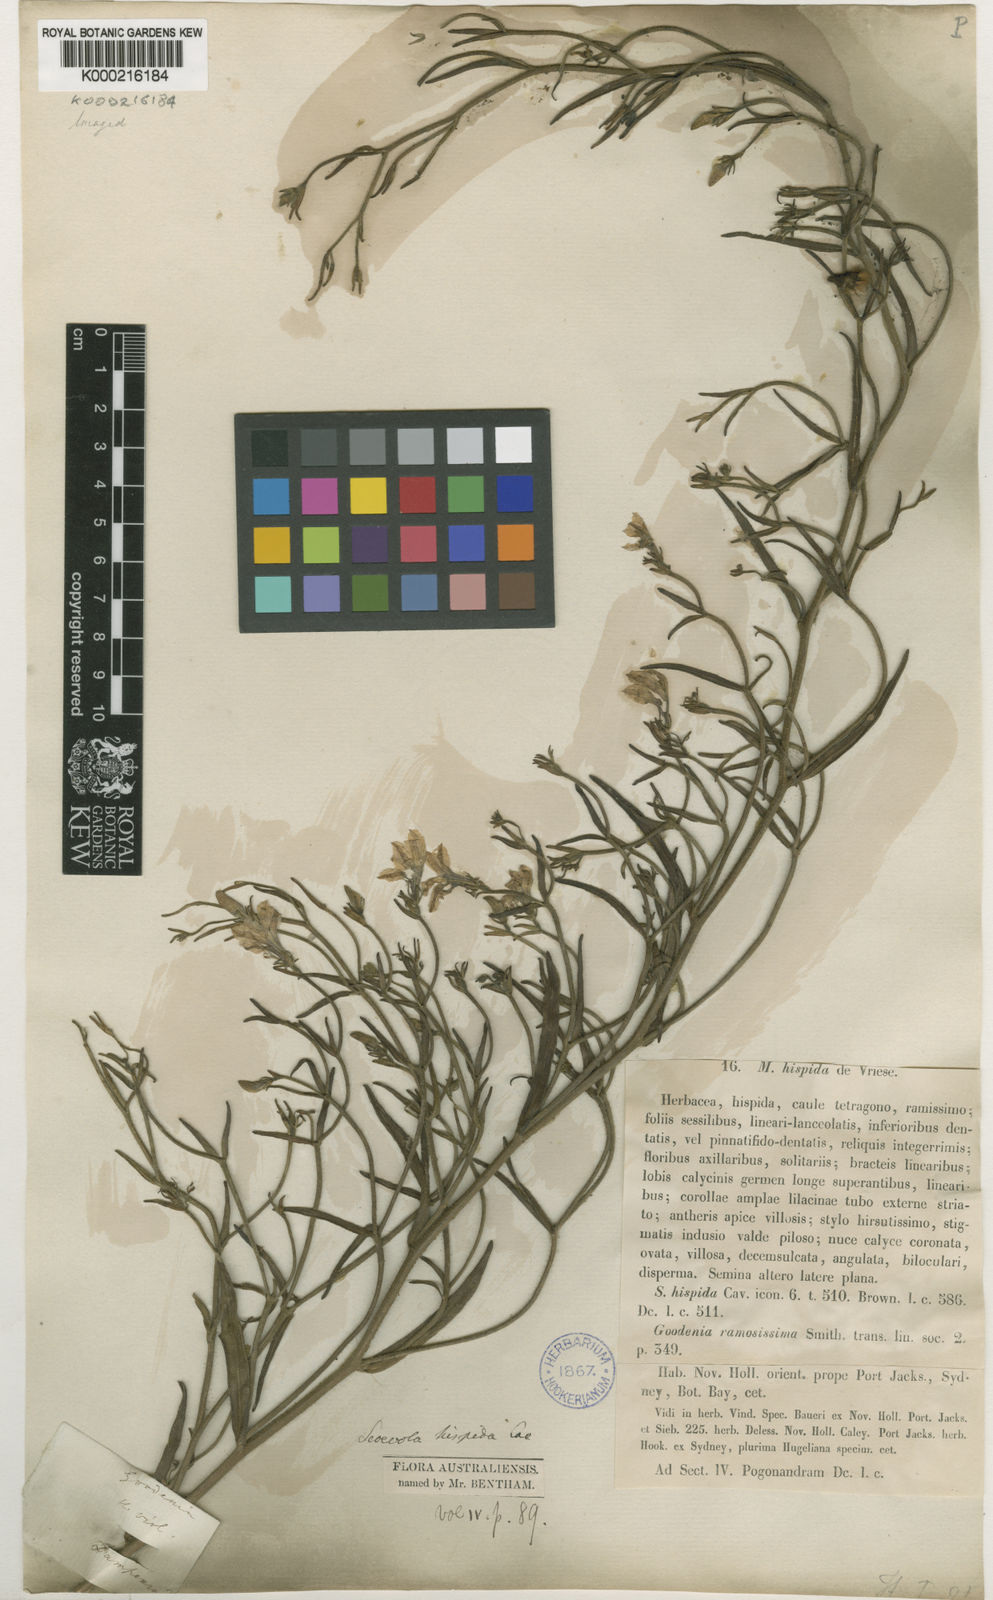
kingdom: Plantae
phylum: Tracheophyta
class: Magnoliopsida
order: Asterales
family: Goodeniaceae
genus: Scaevola
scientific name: Scaevola
